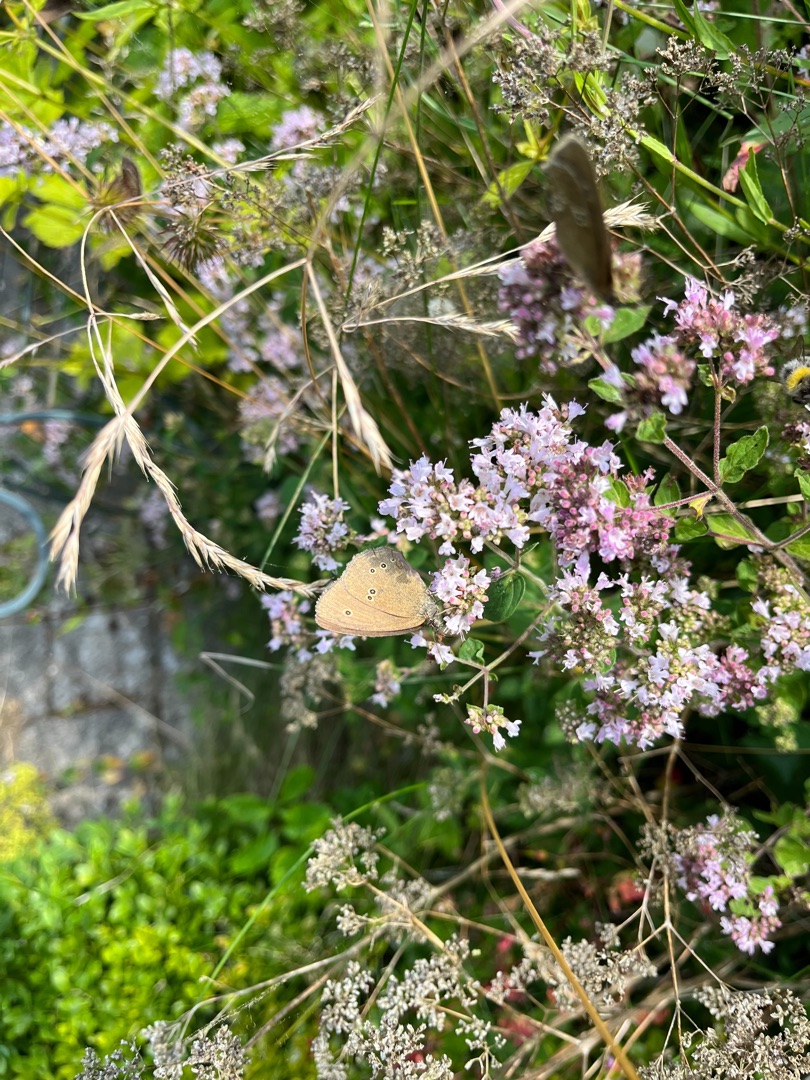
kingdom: Animalia
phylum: Arthropoda
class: Insecta
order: Lepidoptera
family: Nymphalidae
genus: Aphantopus
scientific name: Aphantopus hyperantus
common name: Engrandøje
